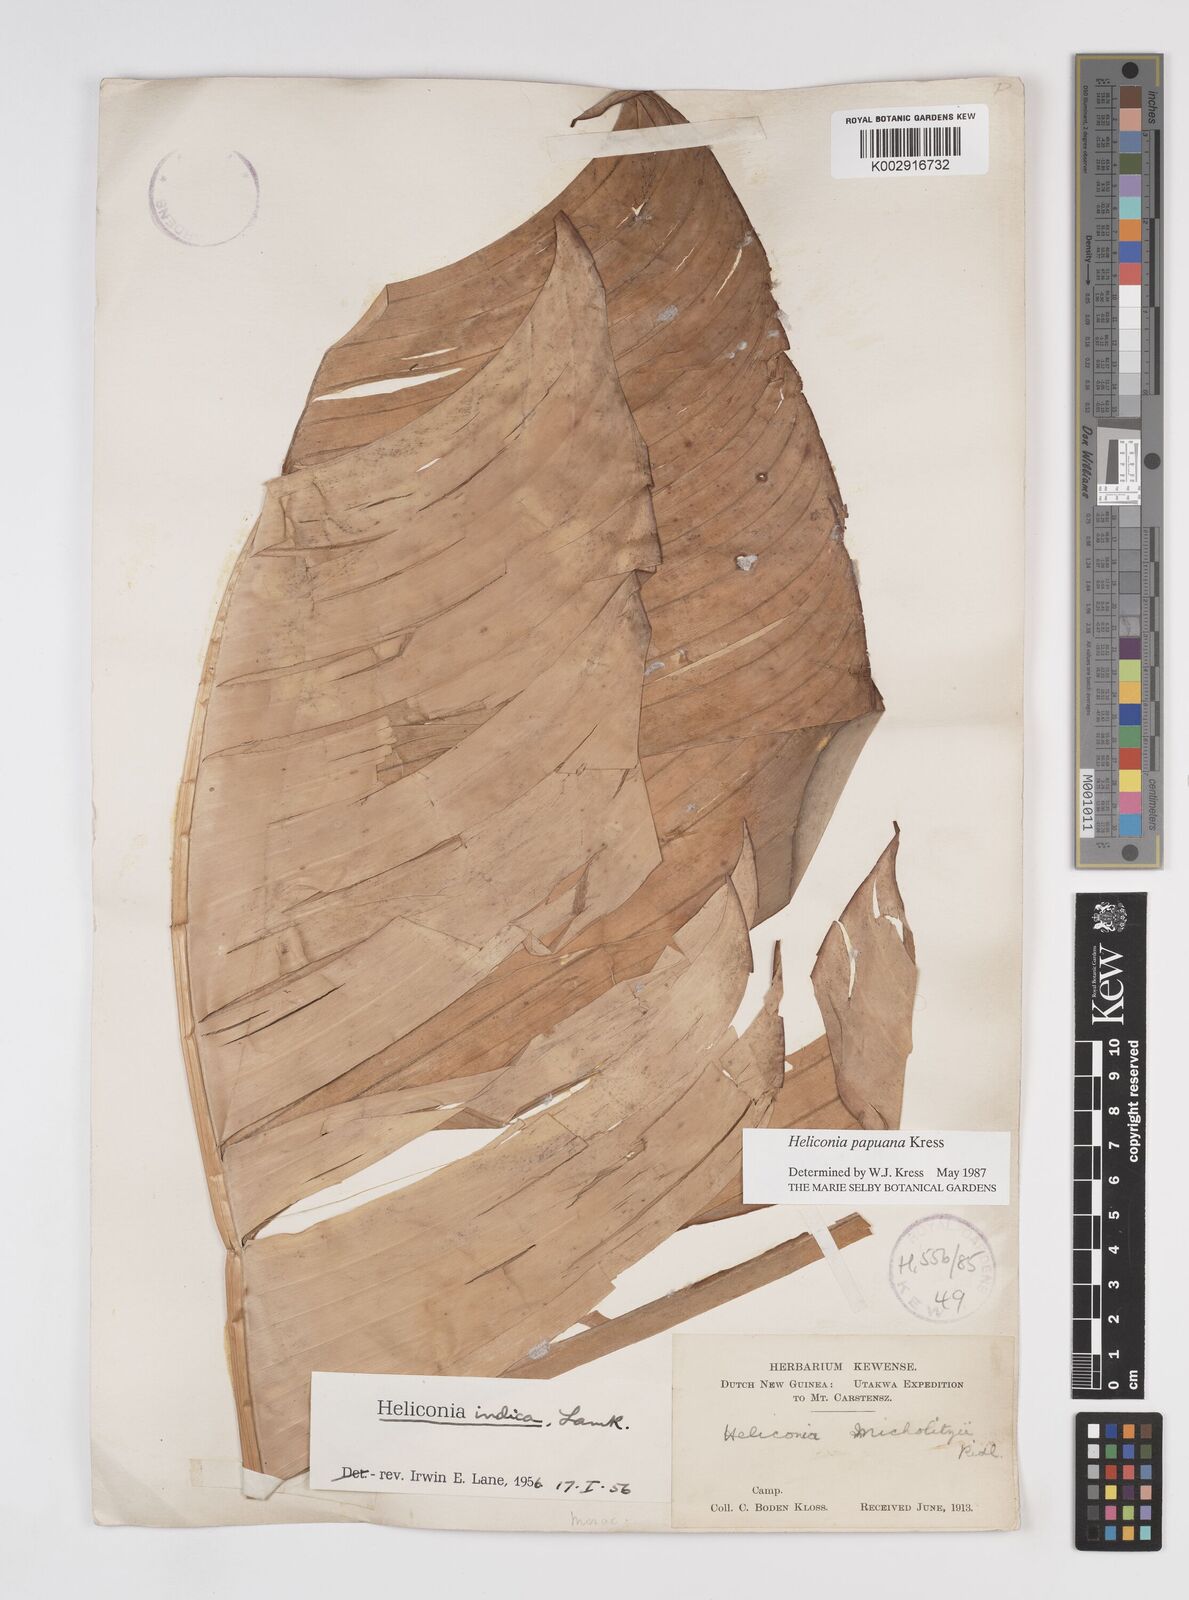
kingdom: Plantae
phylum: Tracheophyta
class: Liliopsida
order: Zingiberales
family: Heliconiaceae
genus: Heliconia
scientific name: Heliconia papuana
